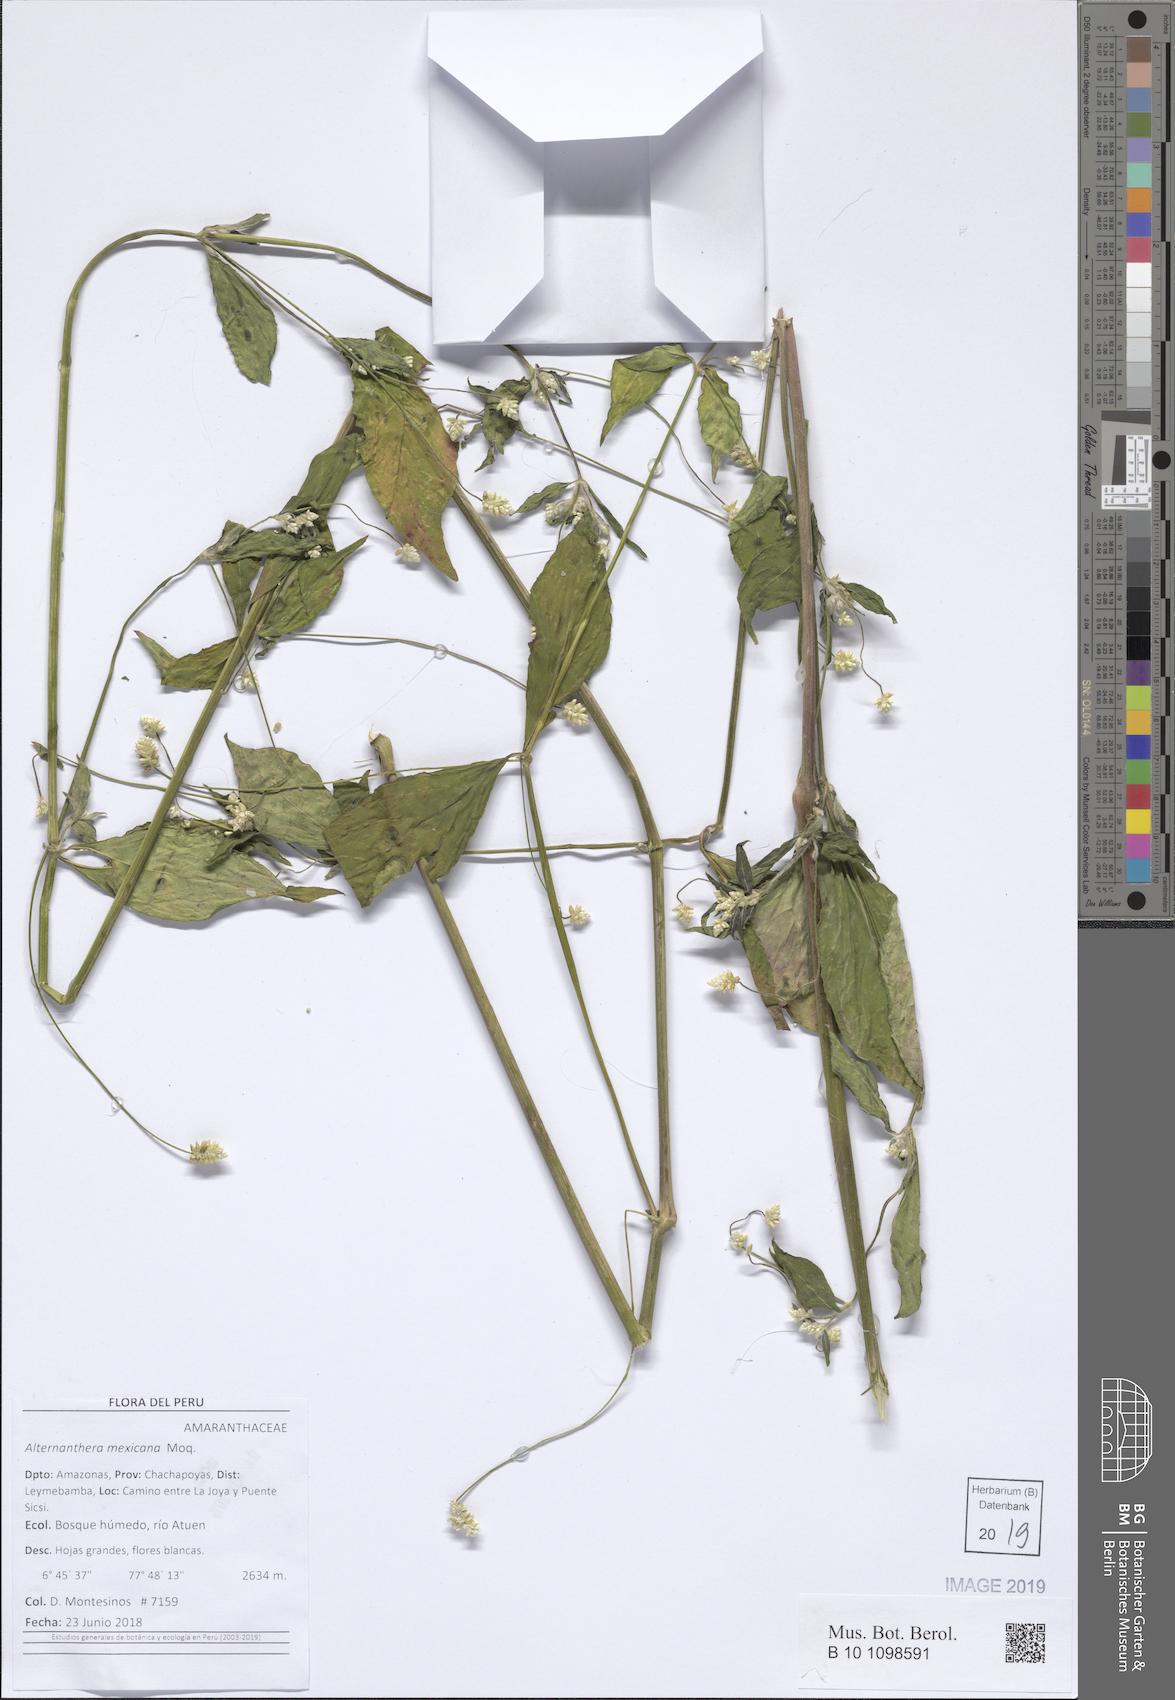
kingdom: Plantae
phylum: Tracheophyta
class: Magnoliopsida
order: Caryophyllales
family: Amaranthaceae
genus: Alternanthera
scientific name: Alternanthera lanceolata
